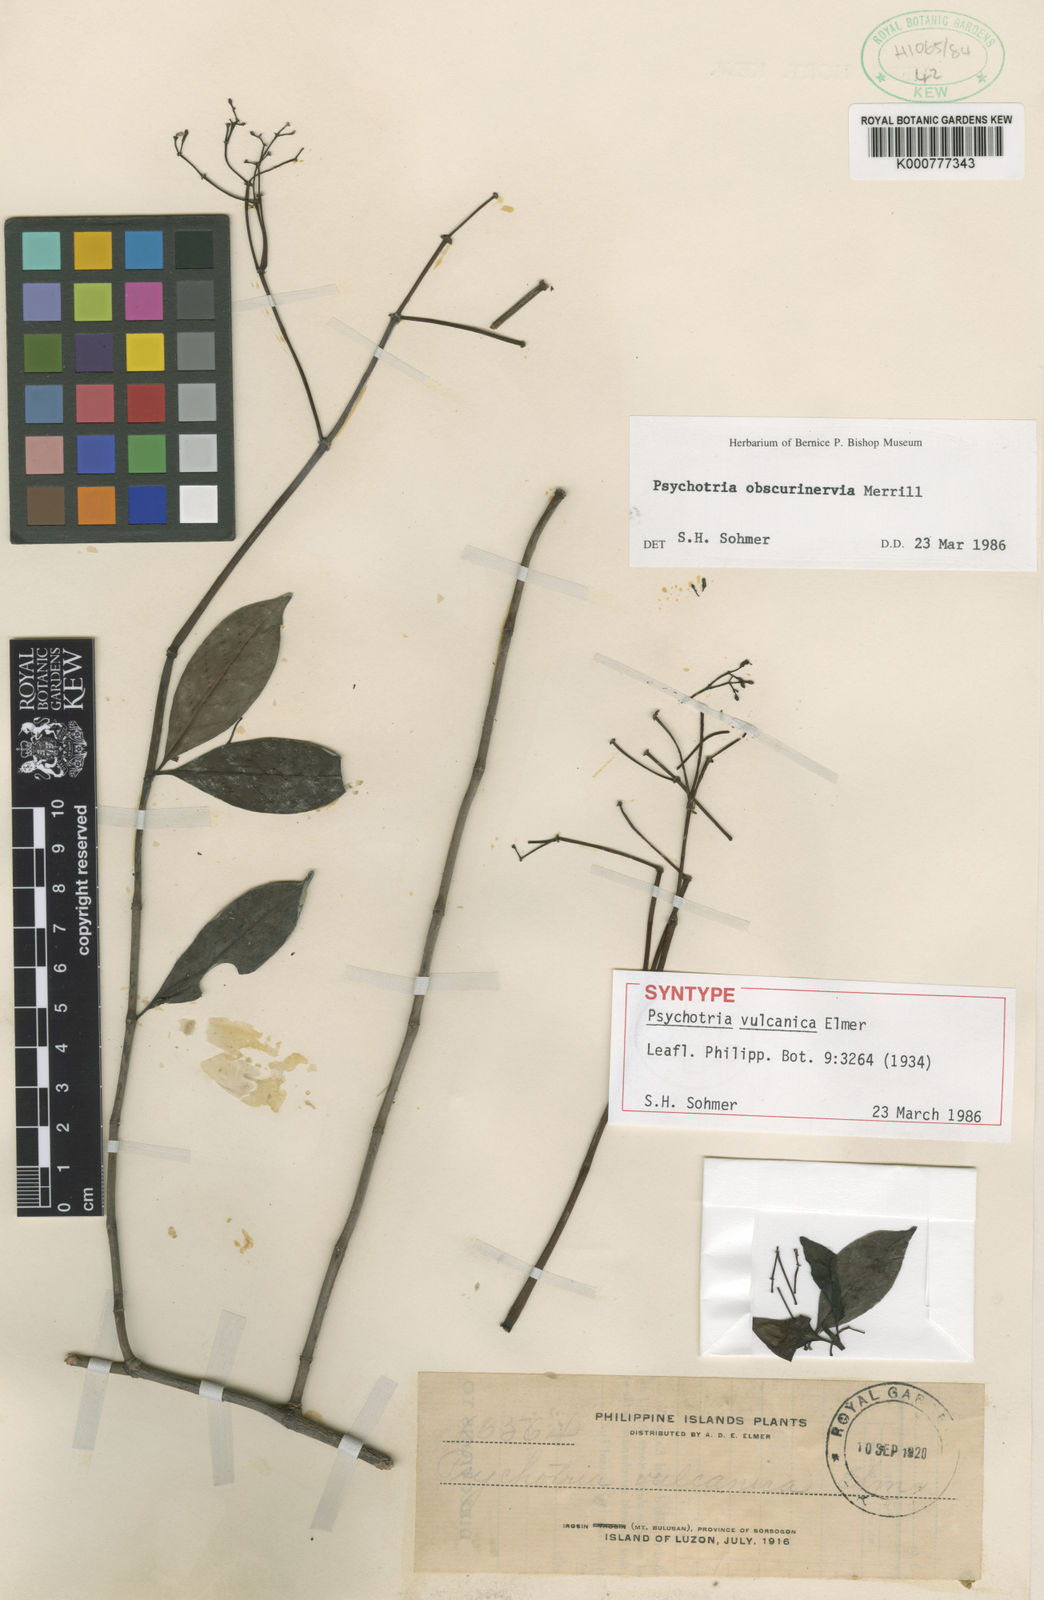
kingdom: Plantae
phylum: Tracheophyta
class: Magnoliopsida
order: Gentianales
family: Rubiaceae
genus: Psychotria
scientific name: Psychotria obscurinervia
